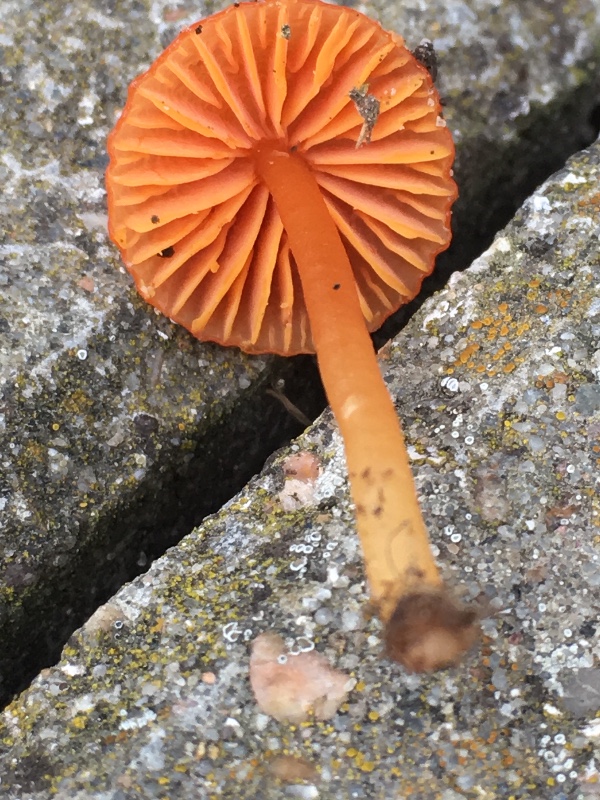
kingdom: Fungi
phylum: Basidiomycota
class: Agaricomycetes
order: Agaricales
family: Hygrophoraceae
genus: Gliophorus
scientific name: Gliophorus europerplexus
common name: Butterscotch waxcap
